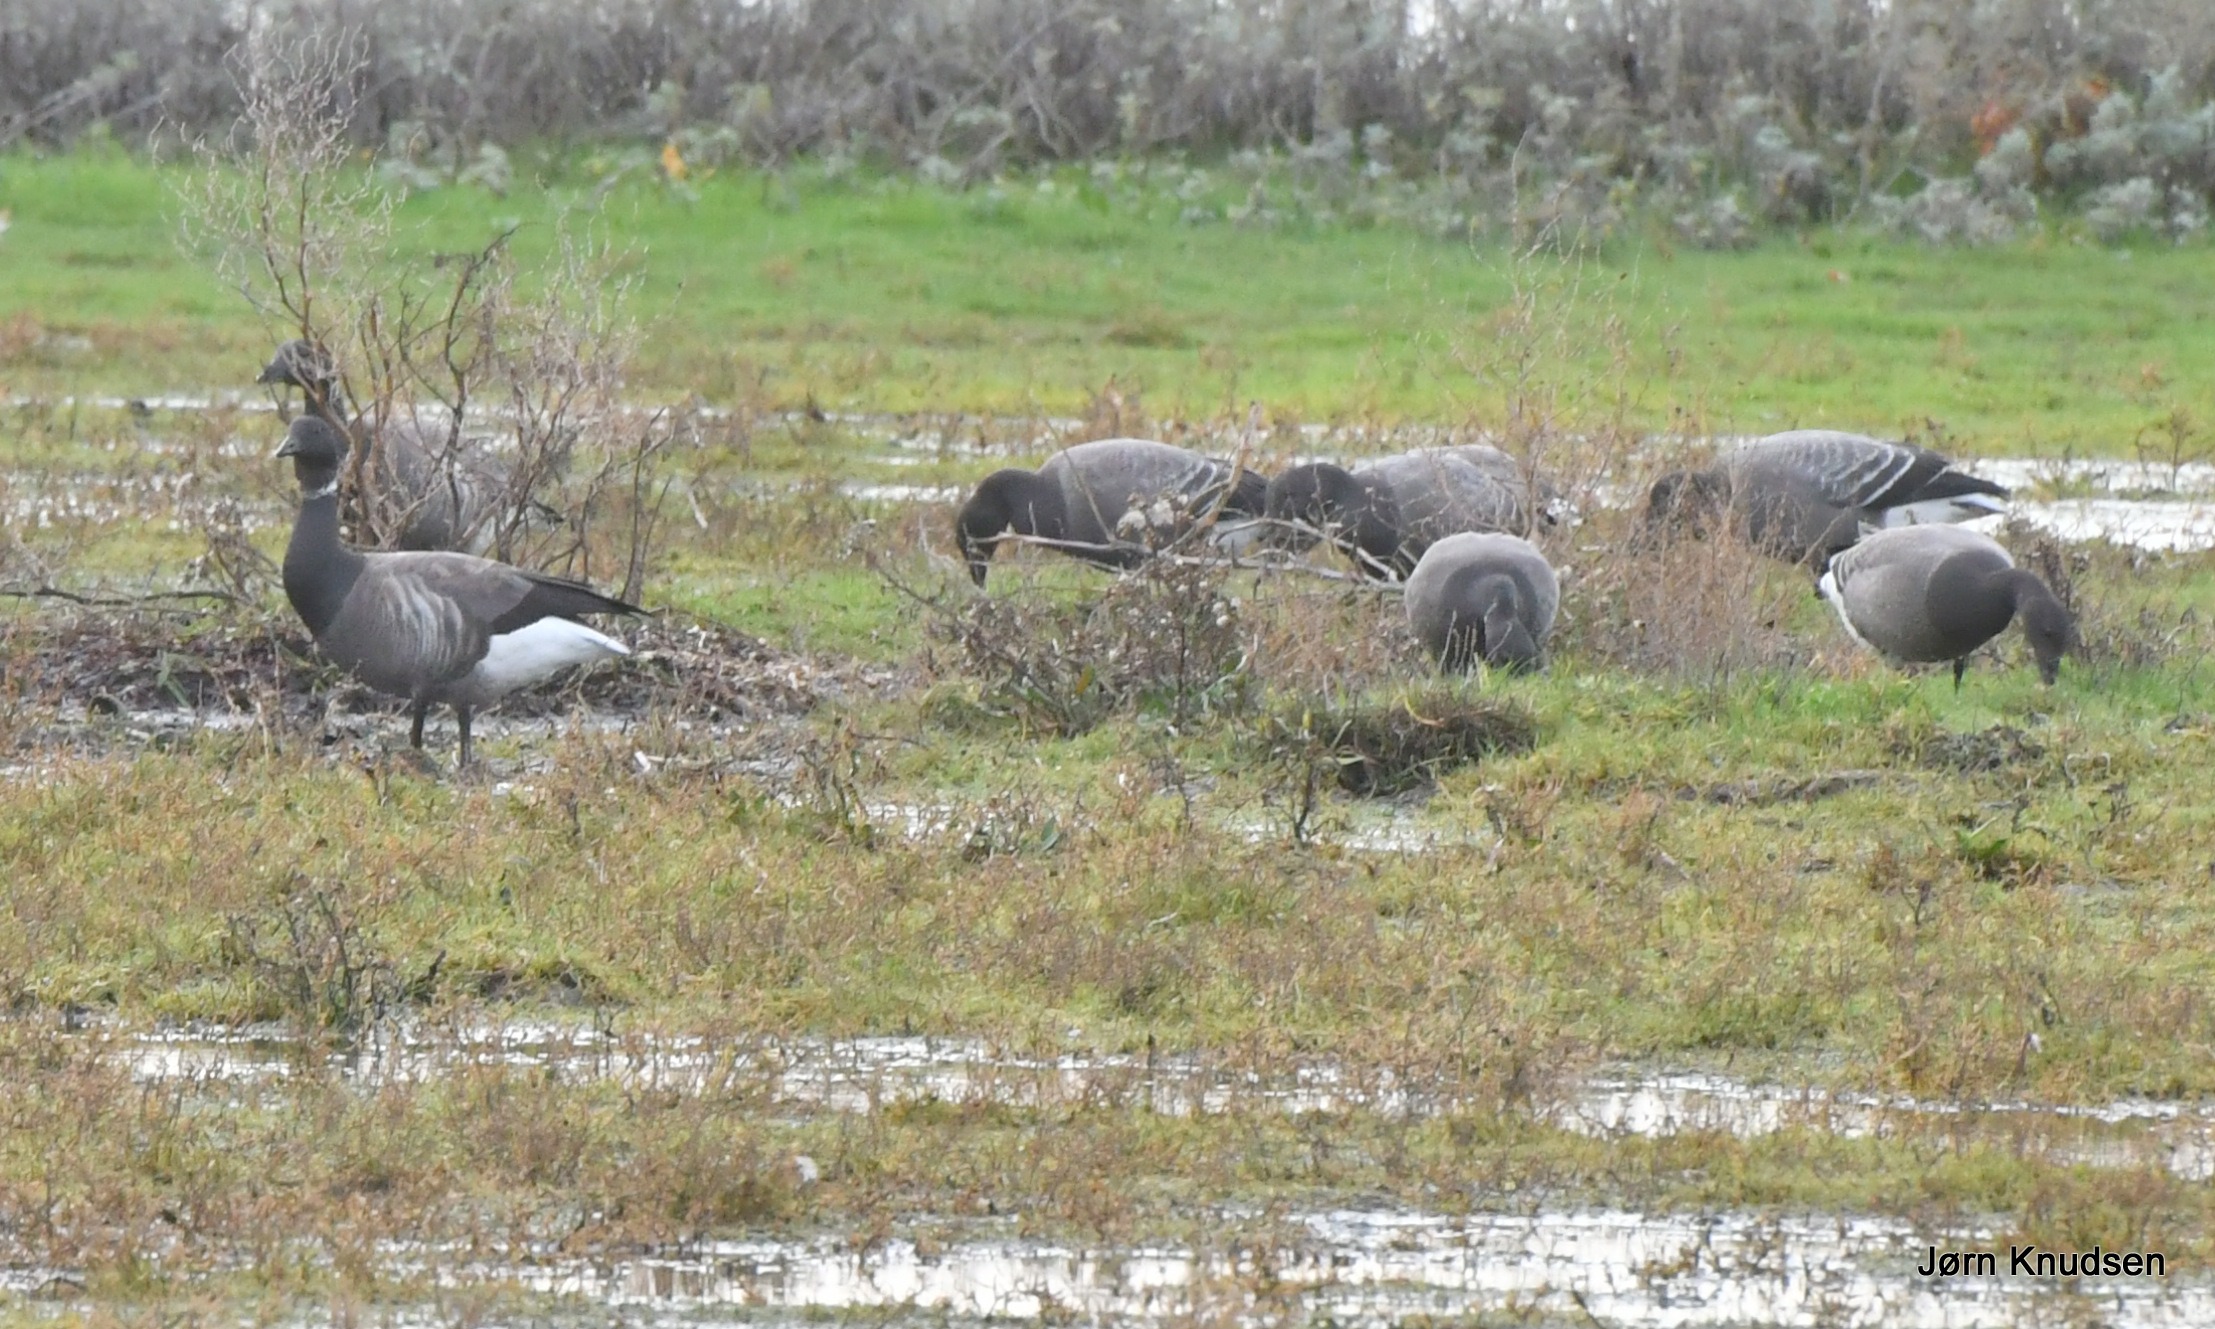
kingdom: Animalia
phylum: Chordata
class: Aves
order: Anseriformes
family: Anatidae
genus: Branta
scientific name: Branta bernicla
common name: Knortegås
